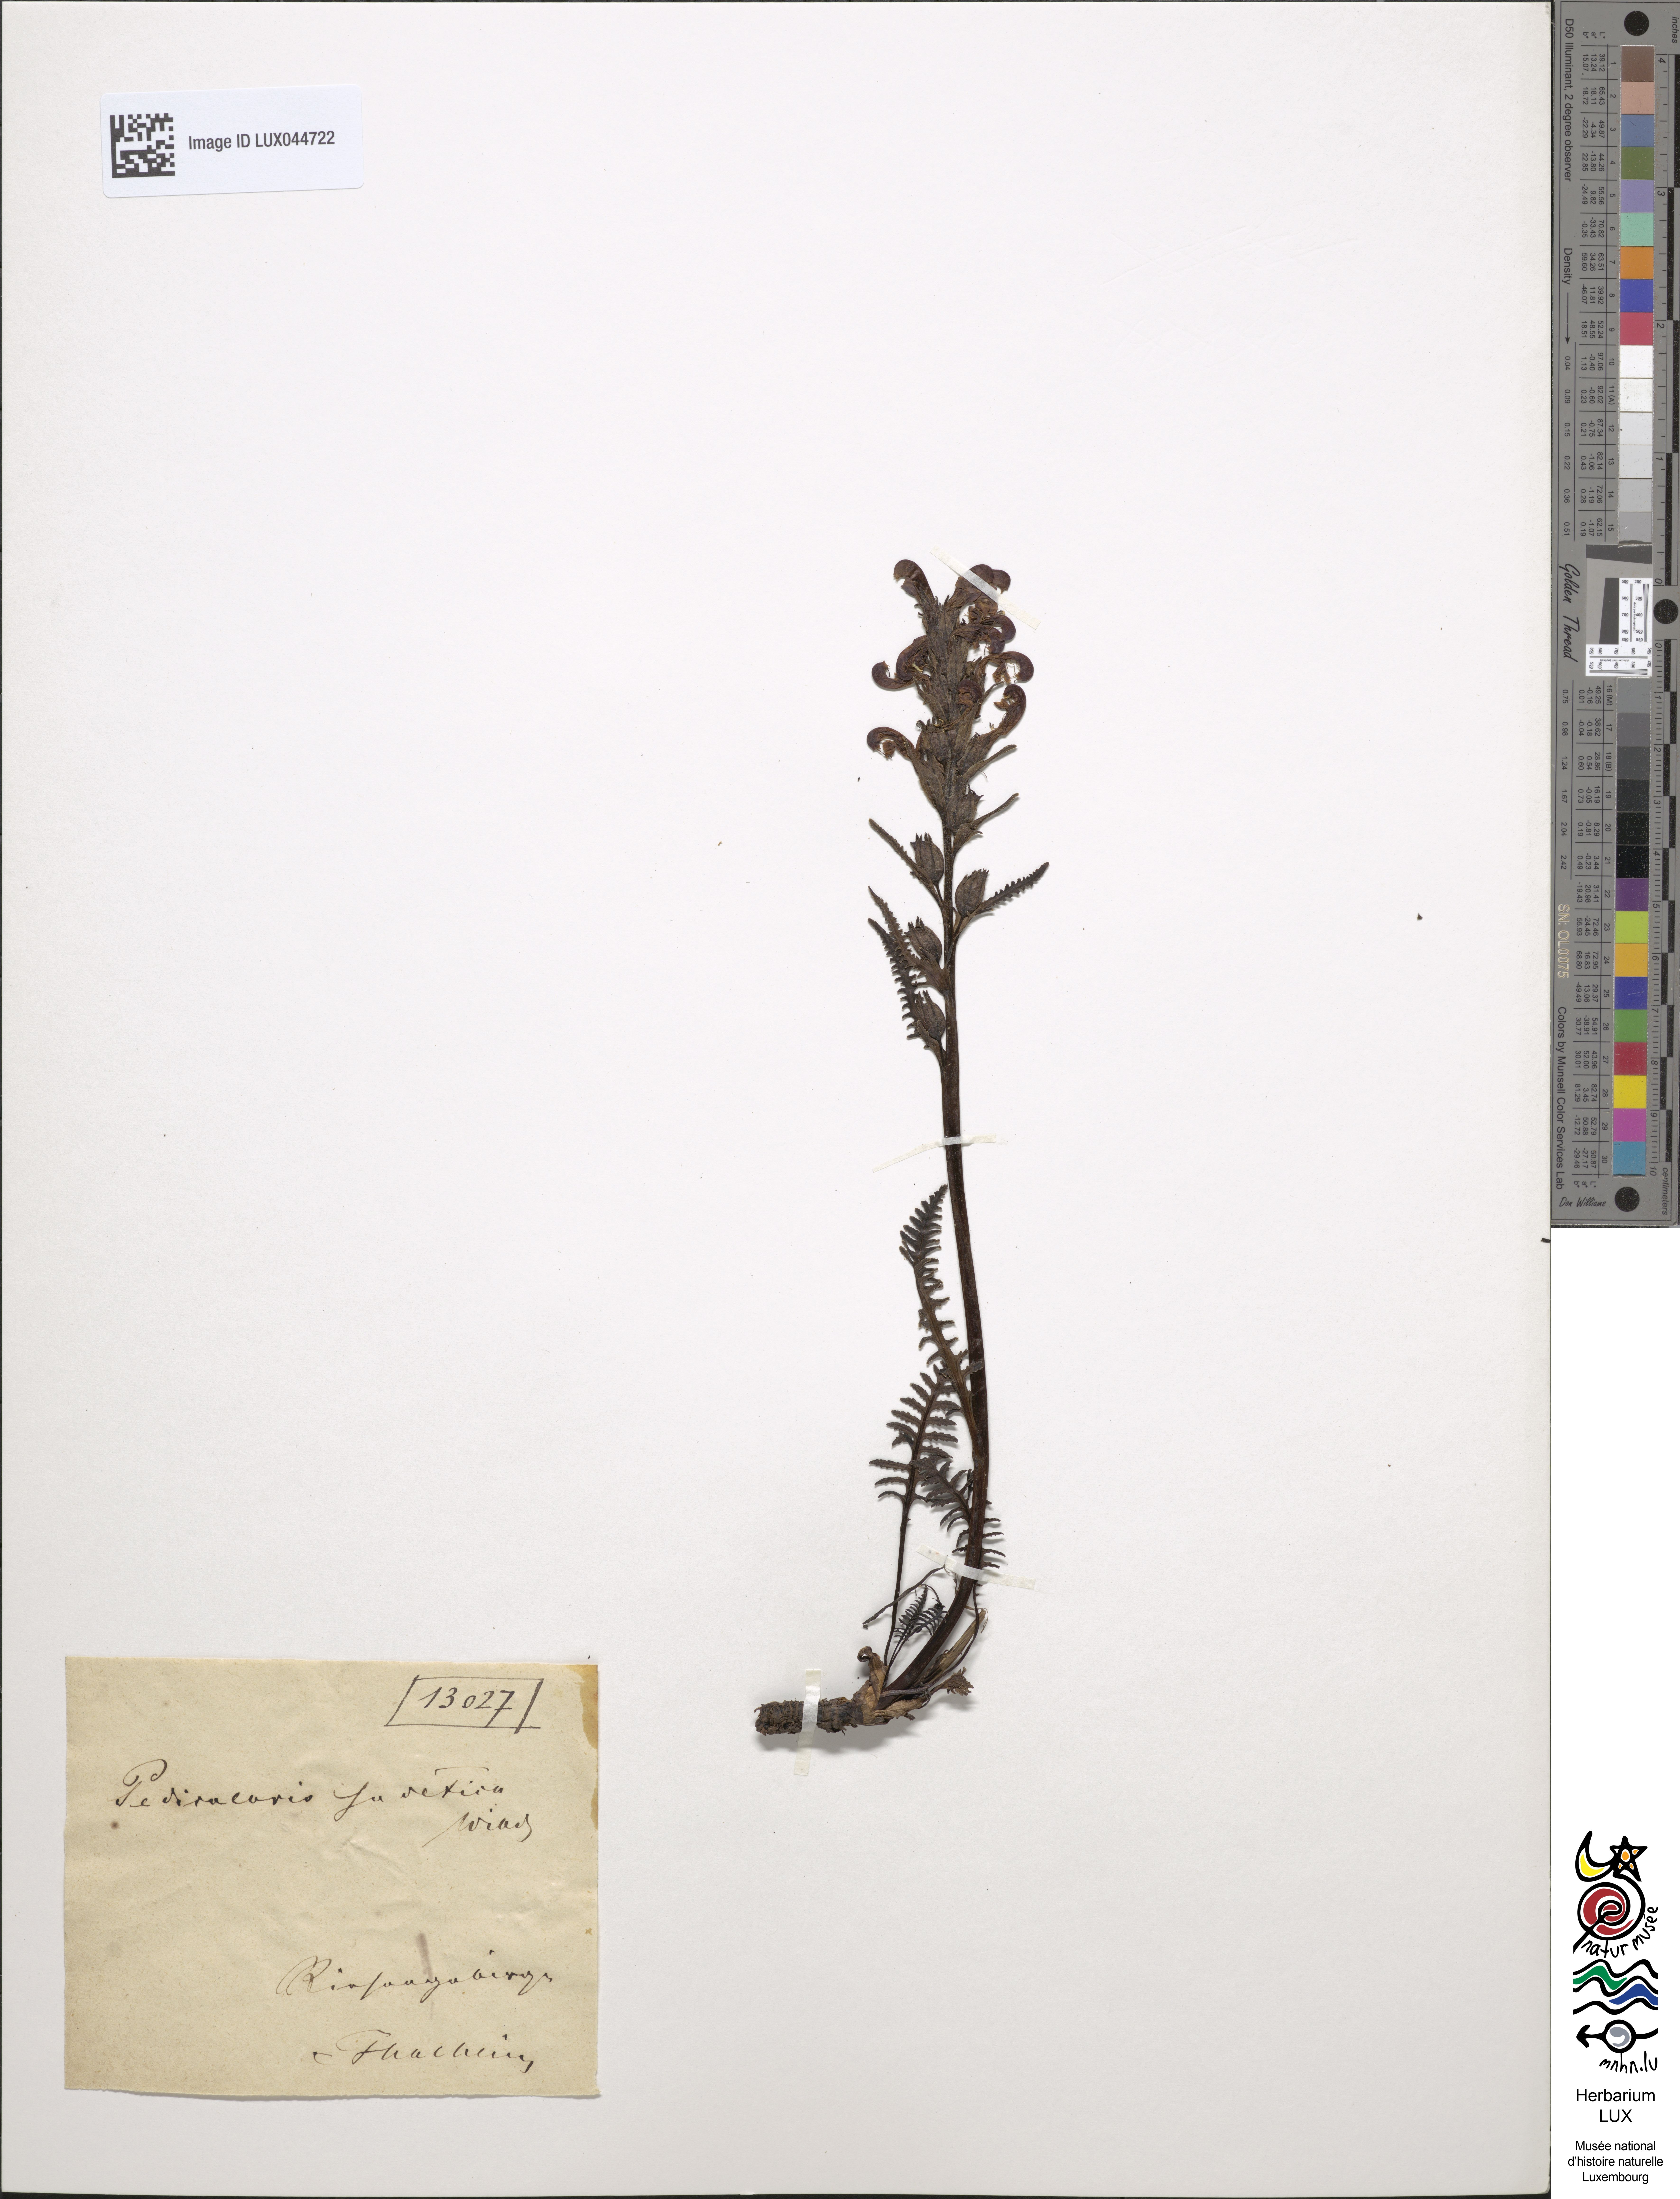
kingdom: Plantae
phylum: Tracheophyta
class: Magnoliopsida
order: Lamiales
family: Orobanchaceae
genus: Pedicularis
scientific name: Pedicularis sudetica
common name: Sudeten lousewort
